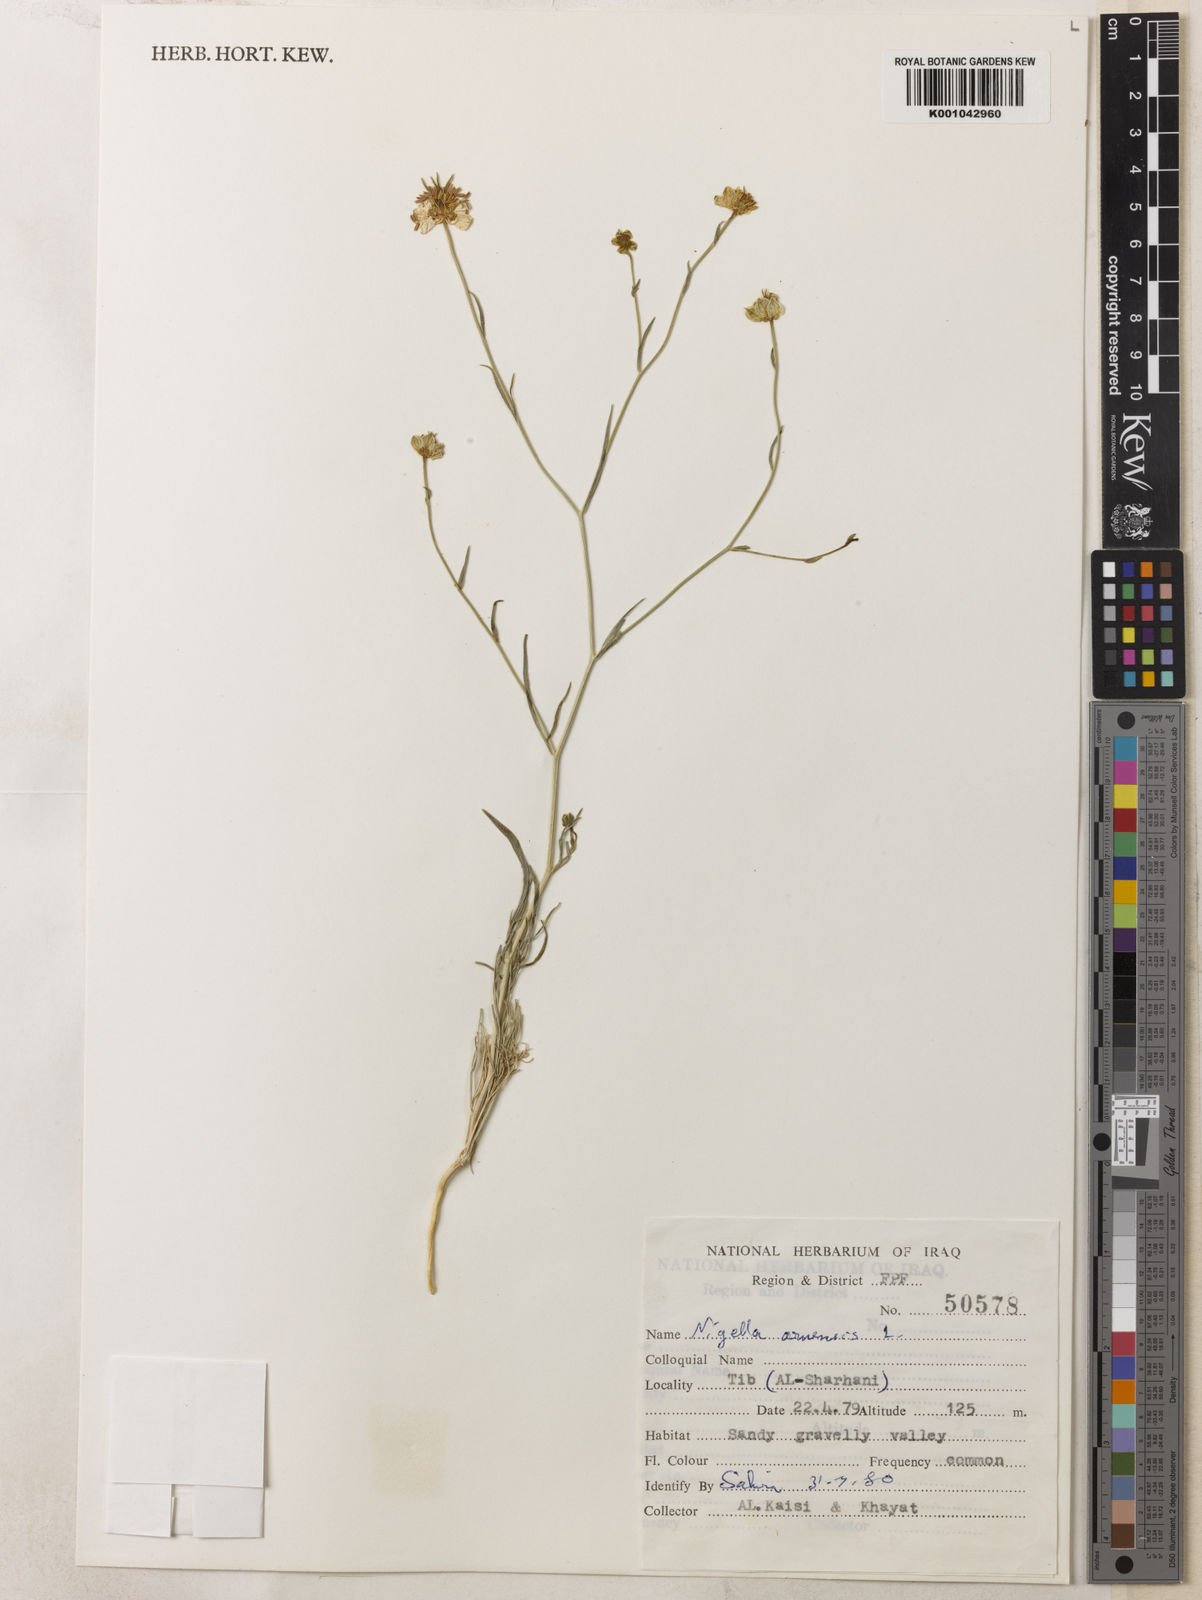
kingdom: Plantae
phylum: Tracheophyta
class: Magnoliopsida
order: Ranunculales
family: Ranunculaceae
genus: Nigella
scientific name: Nigella arvensis
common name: Wild fennel-flower
